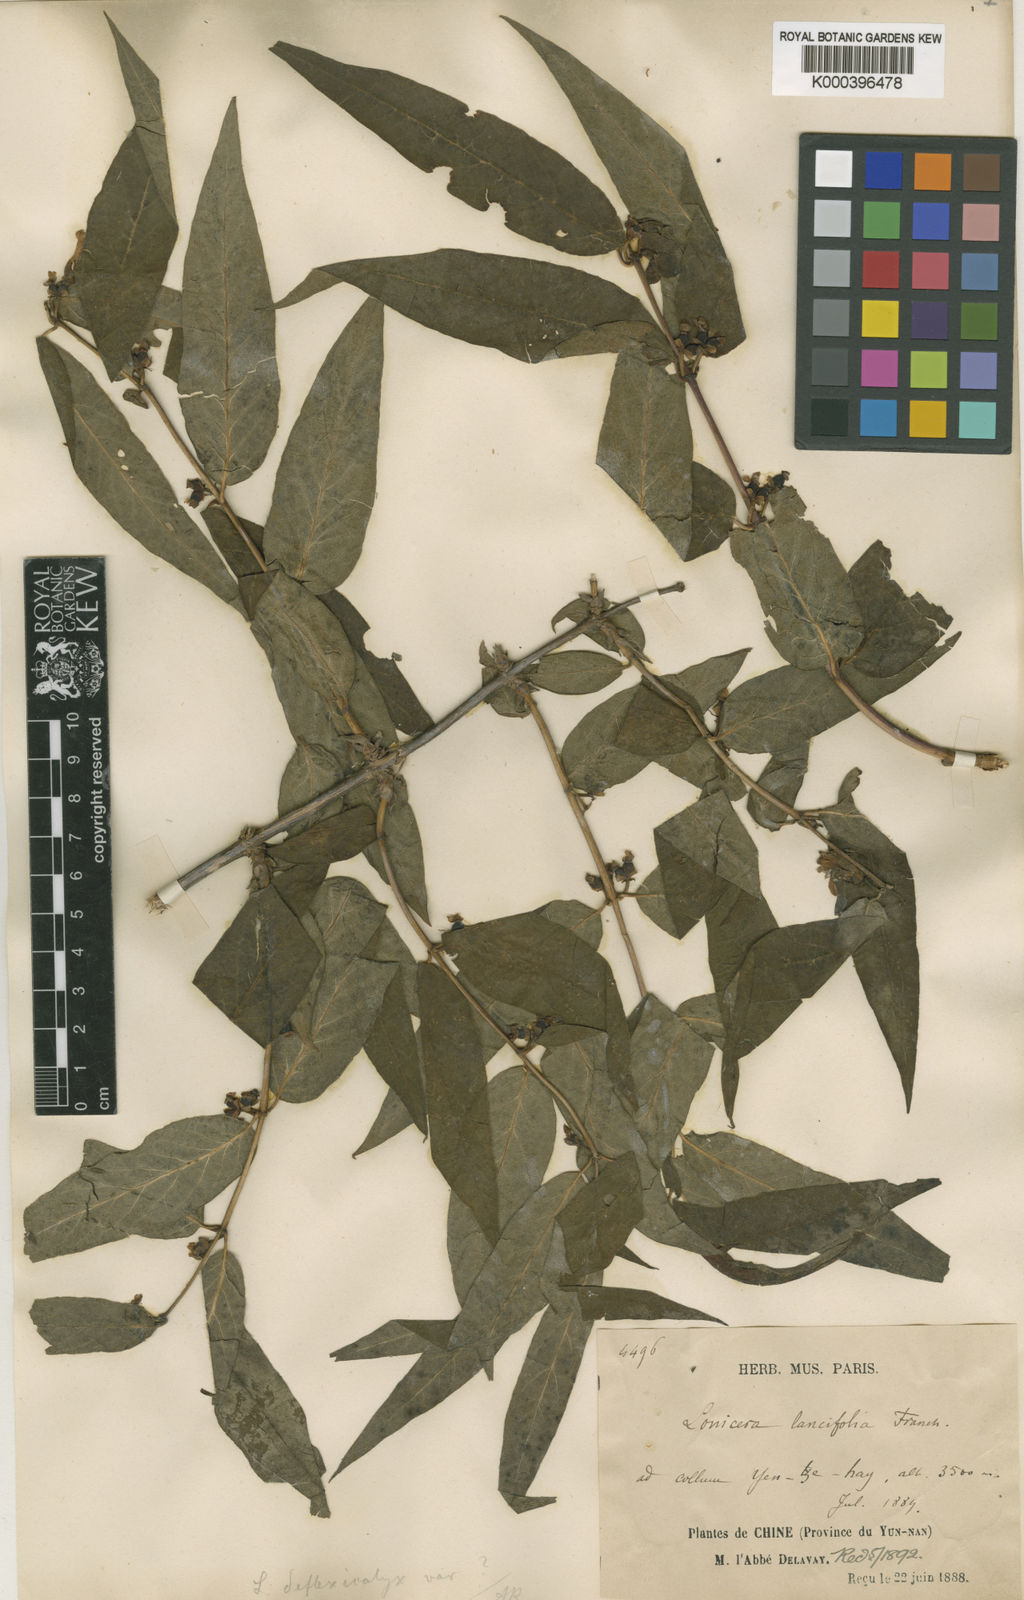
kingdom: Plantae
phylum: Tracheophyta
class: Magnoliopsida
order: Dipsacales
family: Caprifoliaceae
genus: Lonicera
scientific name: Lonicera trichosantha
